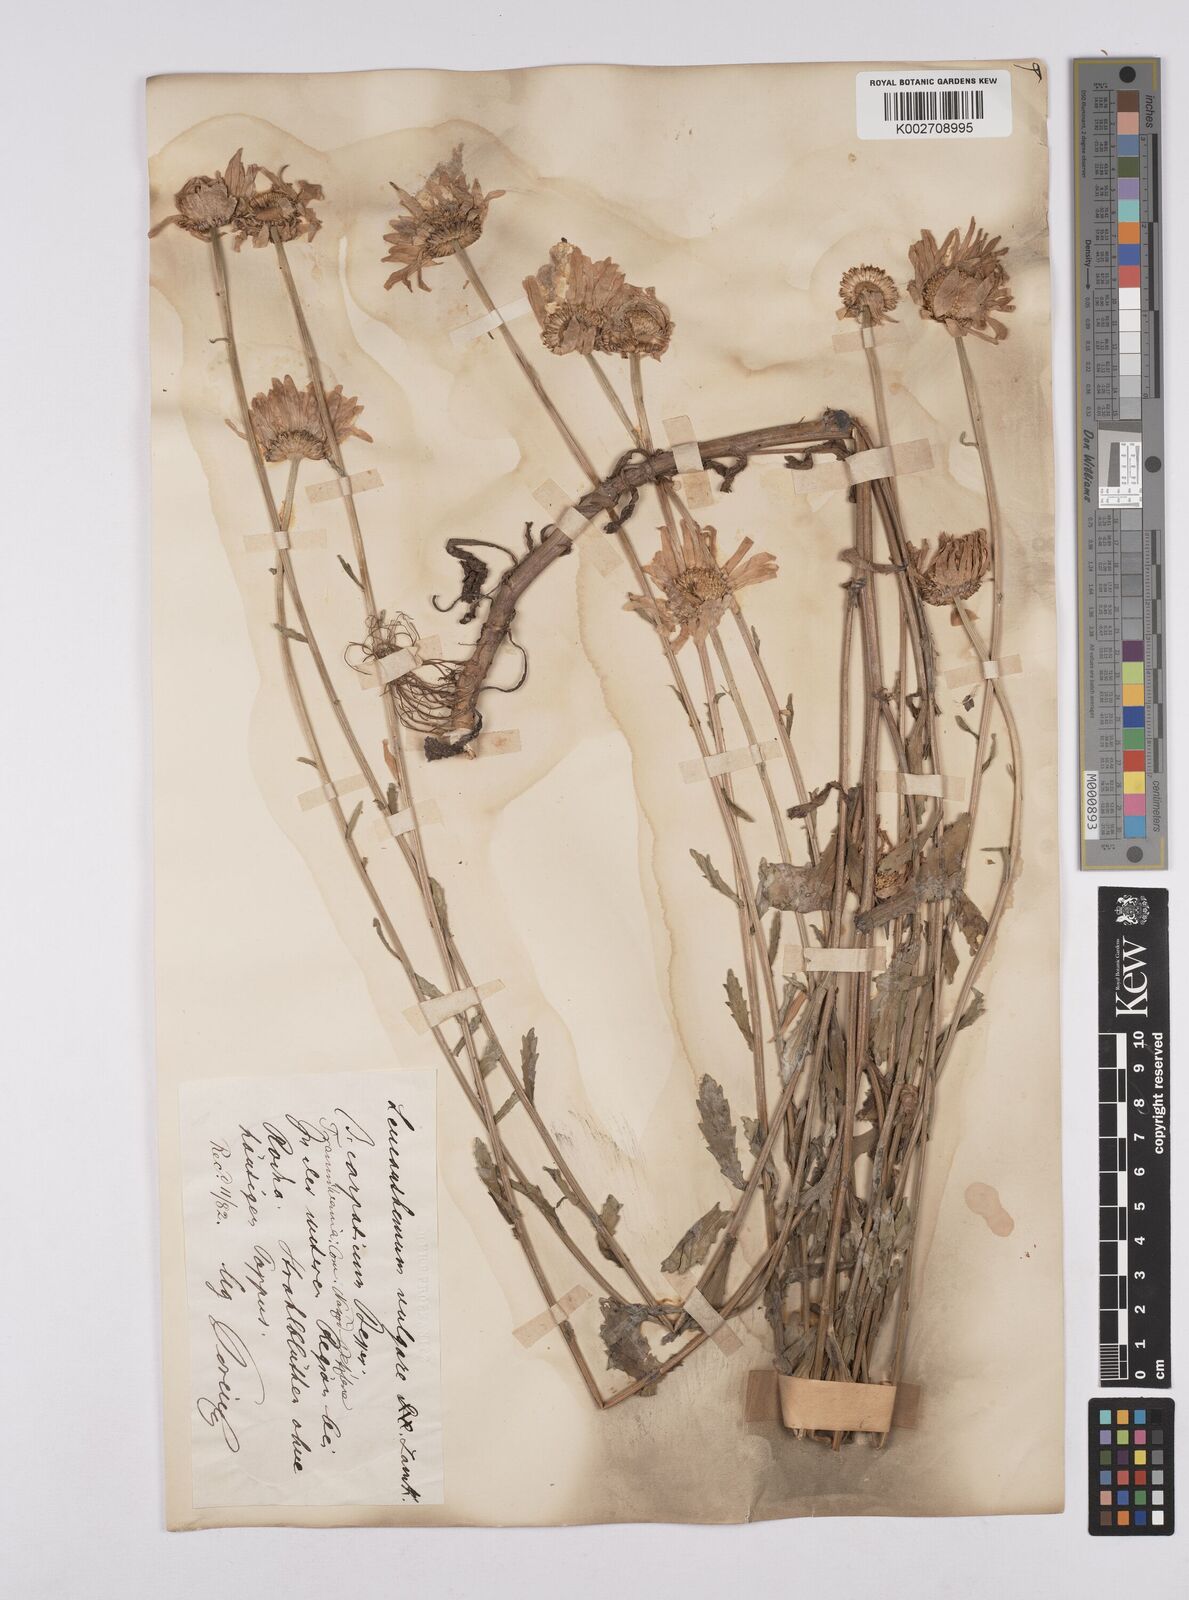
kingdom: Plantae
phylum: Tracheophyta
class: Magnoliopsida
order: Asterales
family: Asteraceae
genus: Leucanthemum
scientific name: Leucanthemum vulgare
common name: Oxeye daisy
